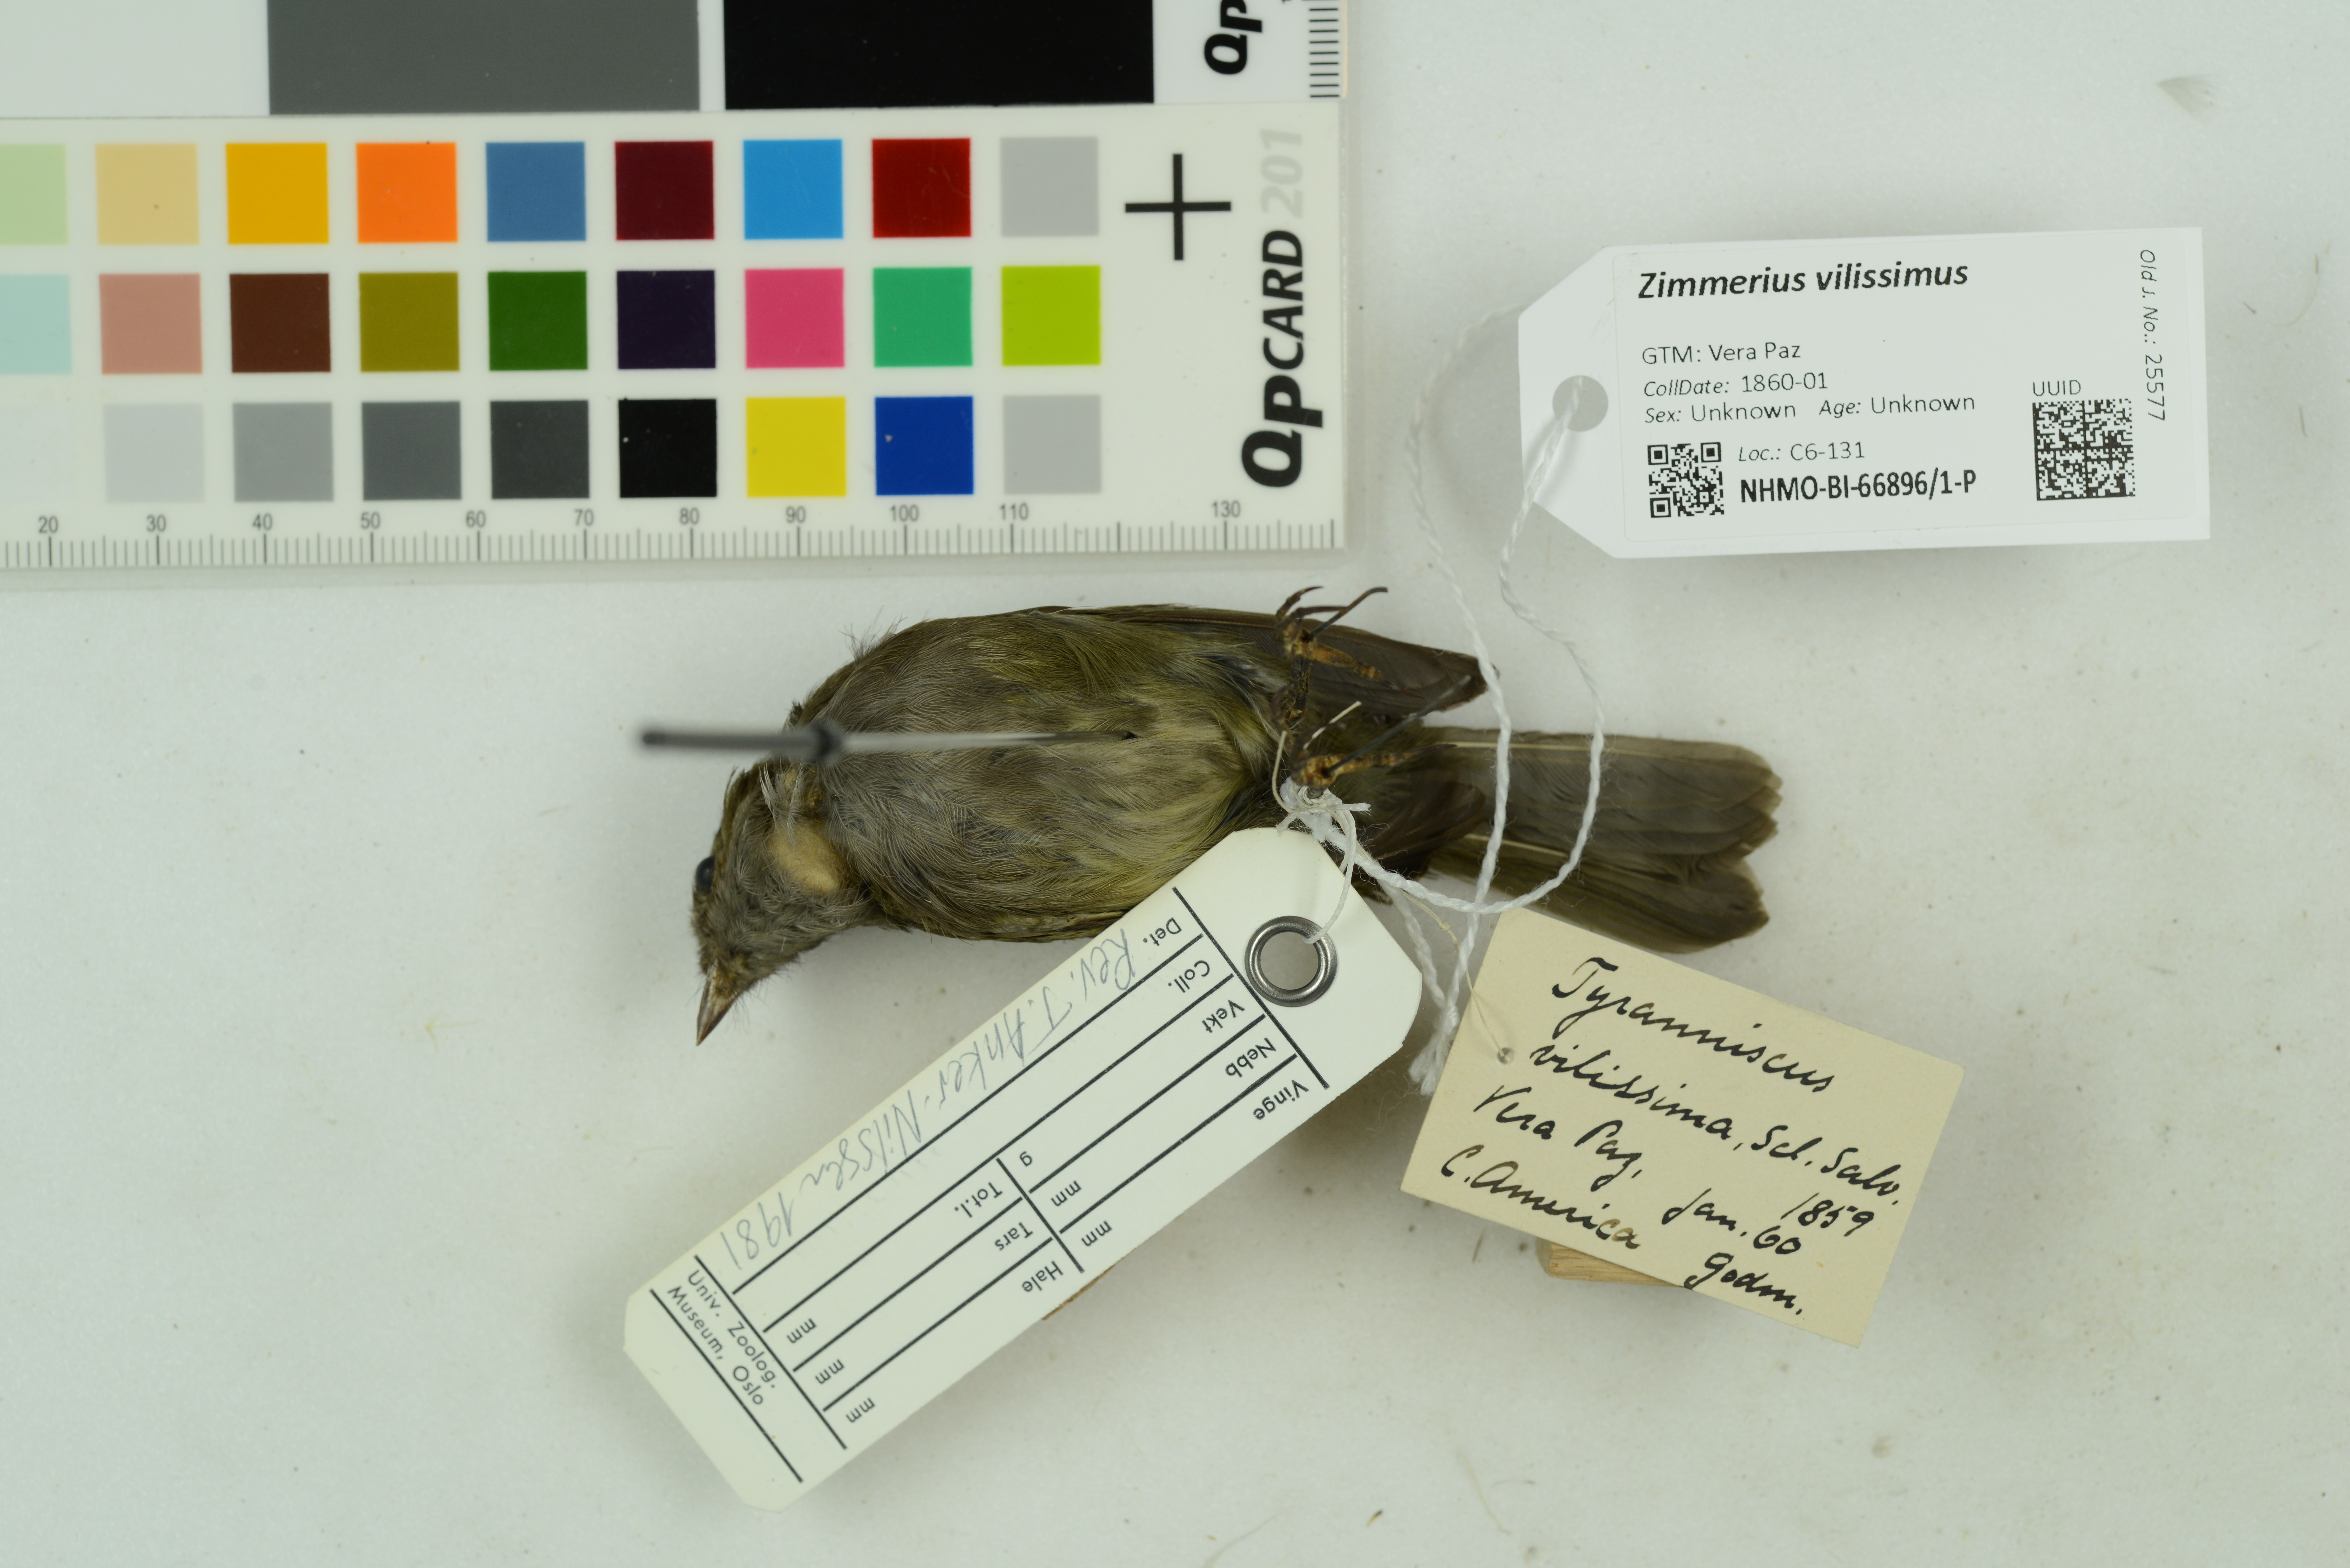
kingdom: Animalia
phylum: Chordata
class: Aves
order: Passeriformes
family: Tyrannidae
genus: Zimmerius
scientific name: Zimmerius vilissimus
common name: Paltry tyrannulet
